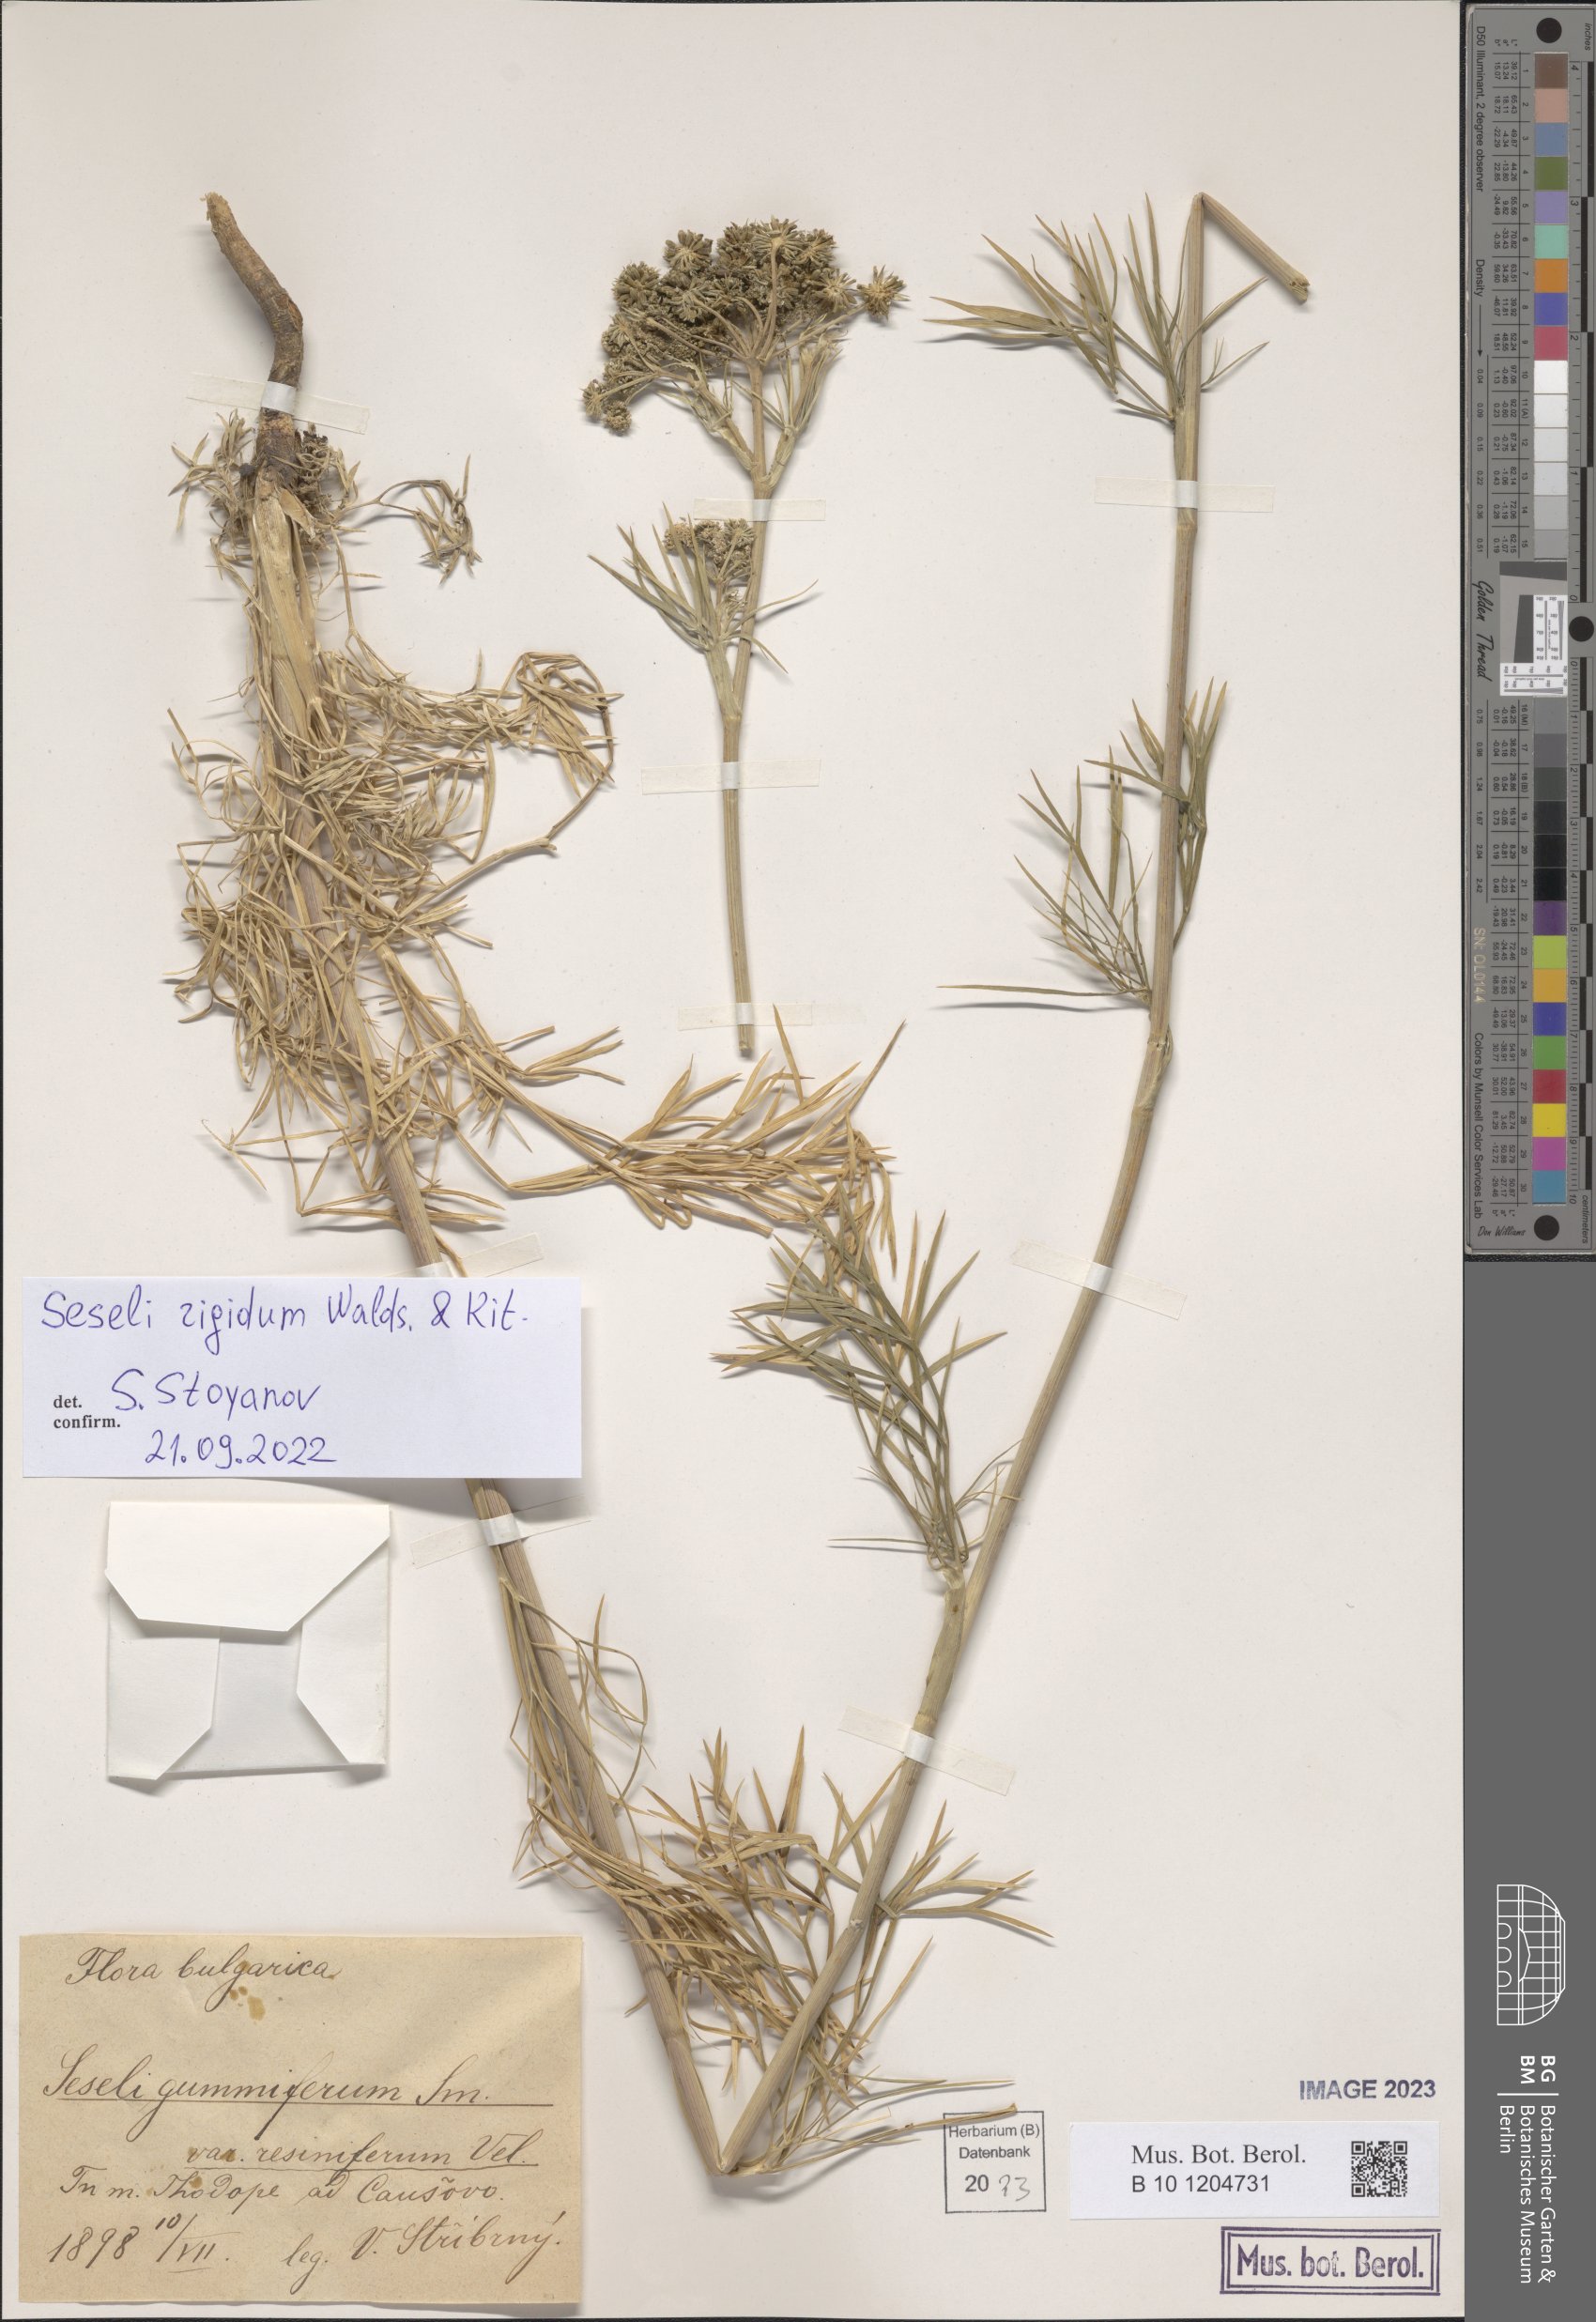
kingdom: Plantae
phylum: Tracheophyta
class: Magnoliopsida
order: Apiales
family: Apiaceae
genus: Seseli
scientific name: Seseli rigidum
